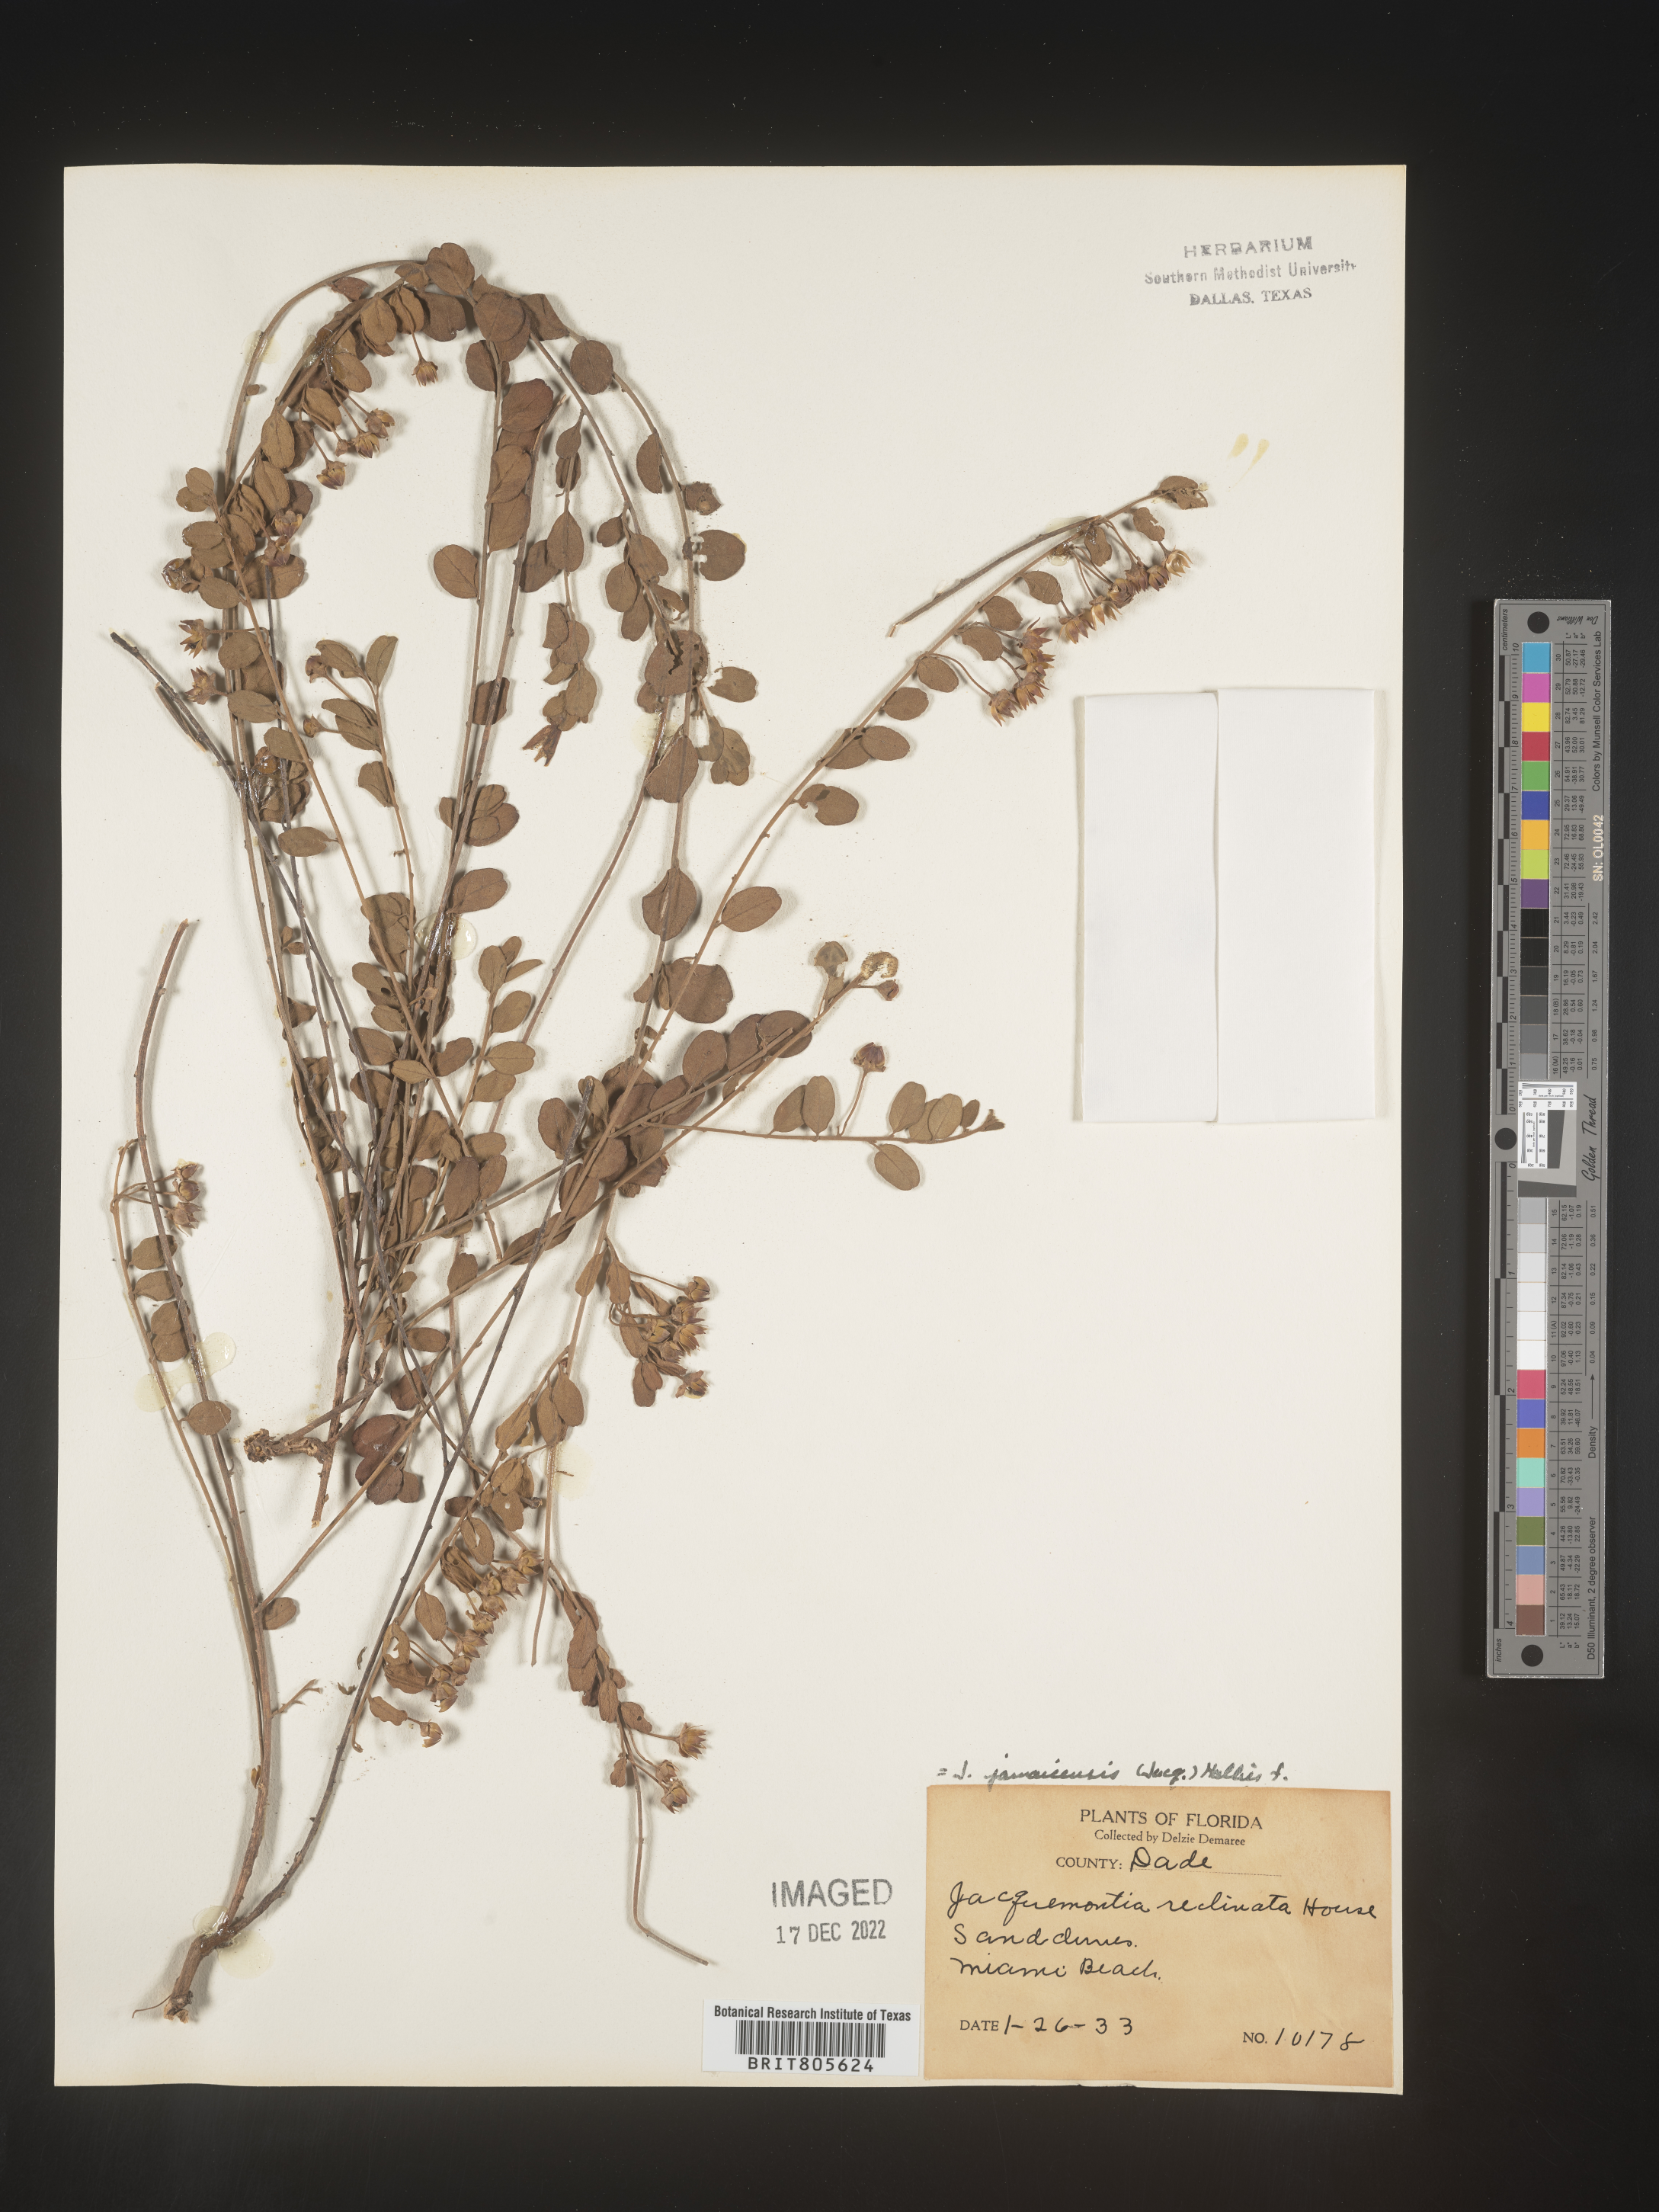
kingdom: Plantae
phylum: Tracheophyta
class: Magnoliopsida
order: Solanales
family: Convolvulaceae
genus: Jacquemontia
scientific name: Jacquemontia
